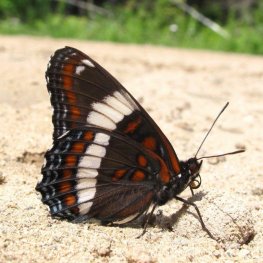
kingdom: Animalia
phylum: Arthropoda
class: Insecta
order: Lepidoptera
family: Nymphalidae
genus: Limenitis
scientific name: Limenitis arthemis
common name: Red-spotted Admiral
